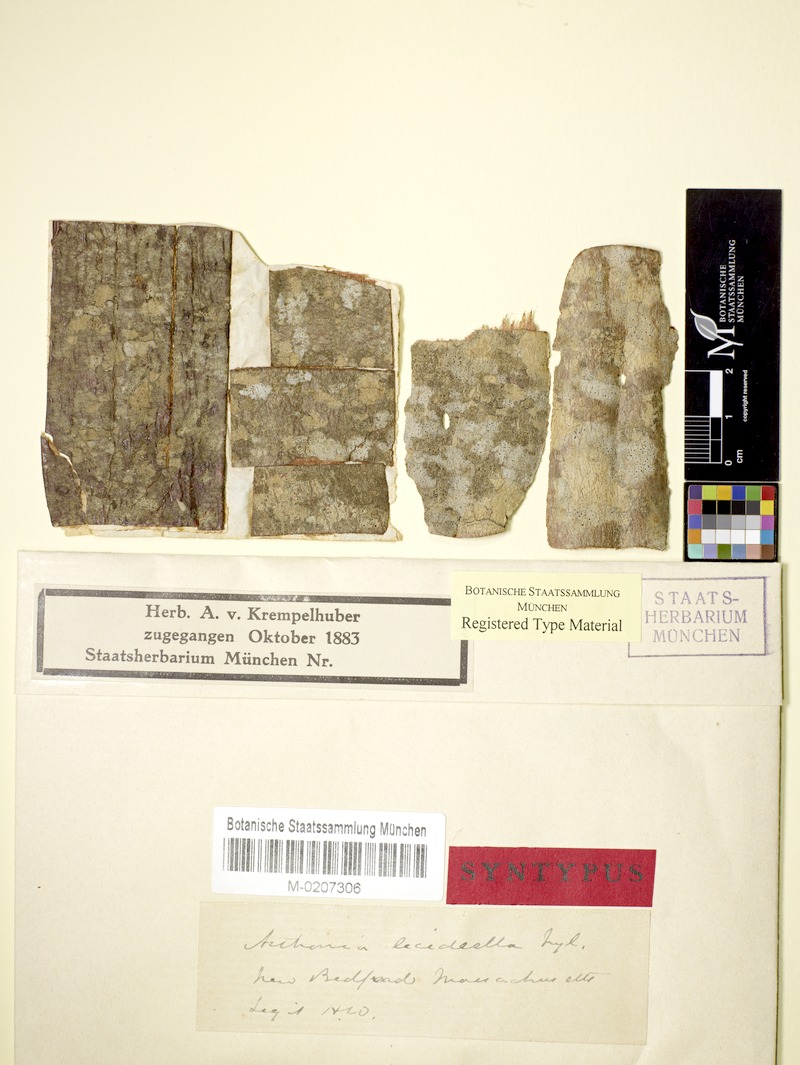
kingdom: Fungi
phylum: Ascomycota
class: Arthoniomycetes
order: Arthoniales
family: Arthoniaceae
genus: Arthonia
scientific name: Arthonia lecideella
